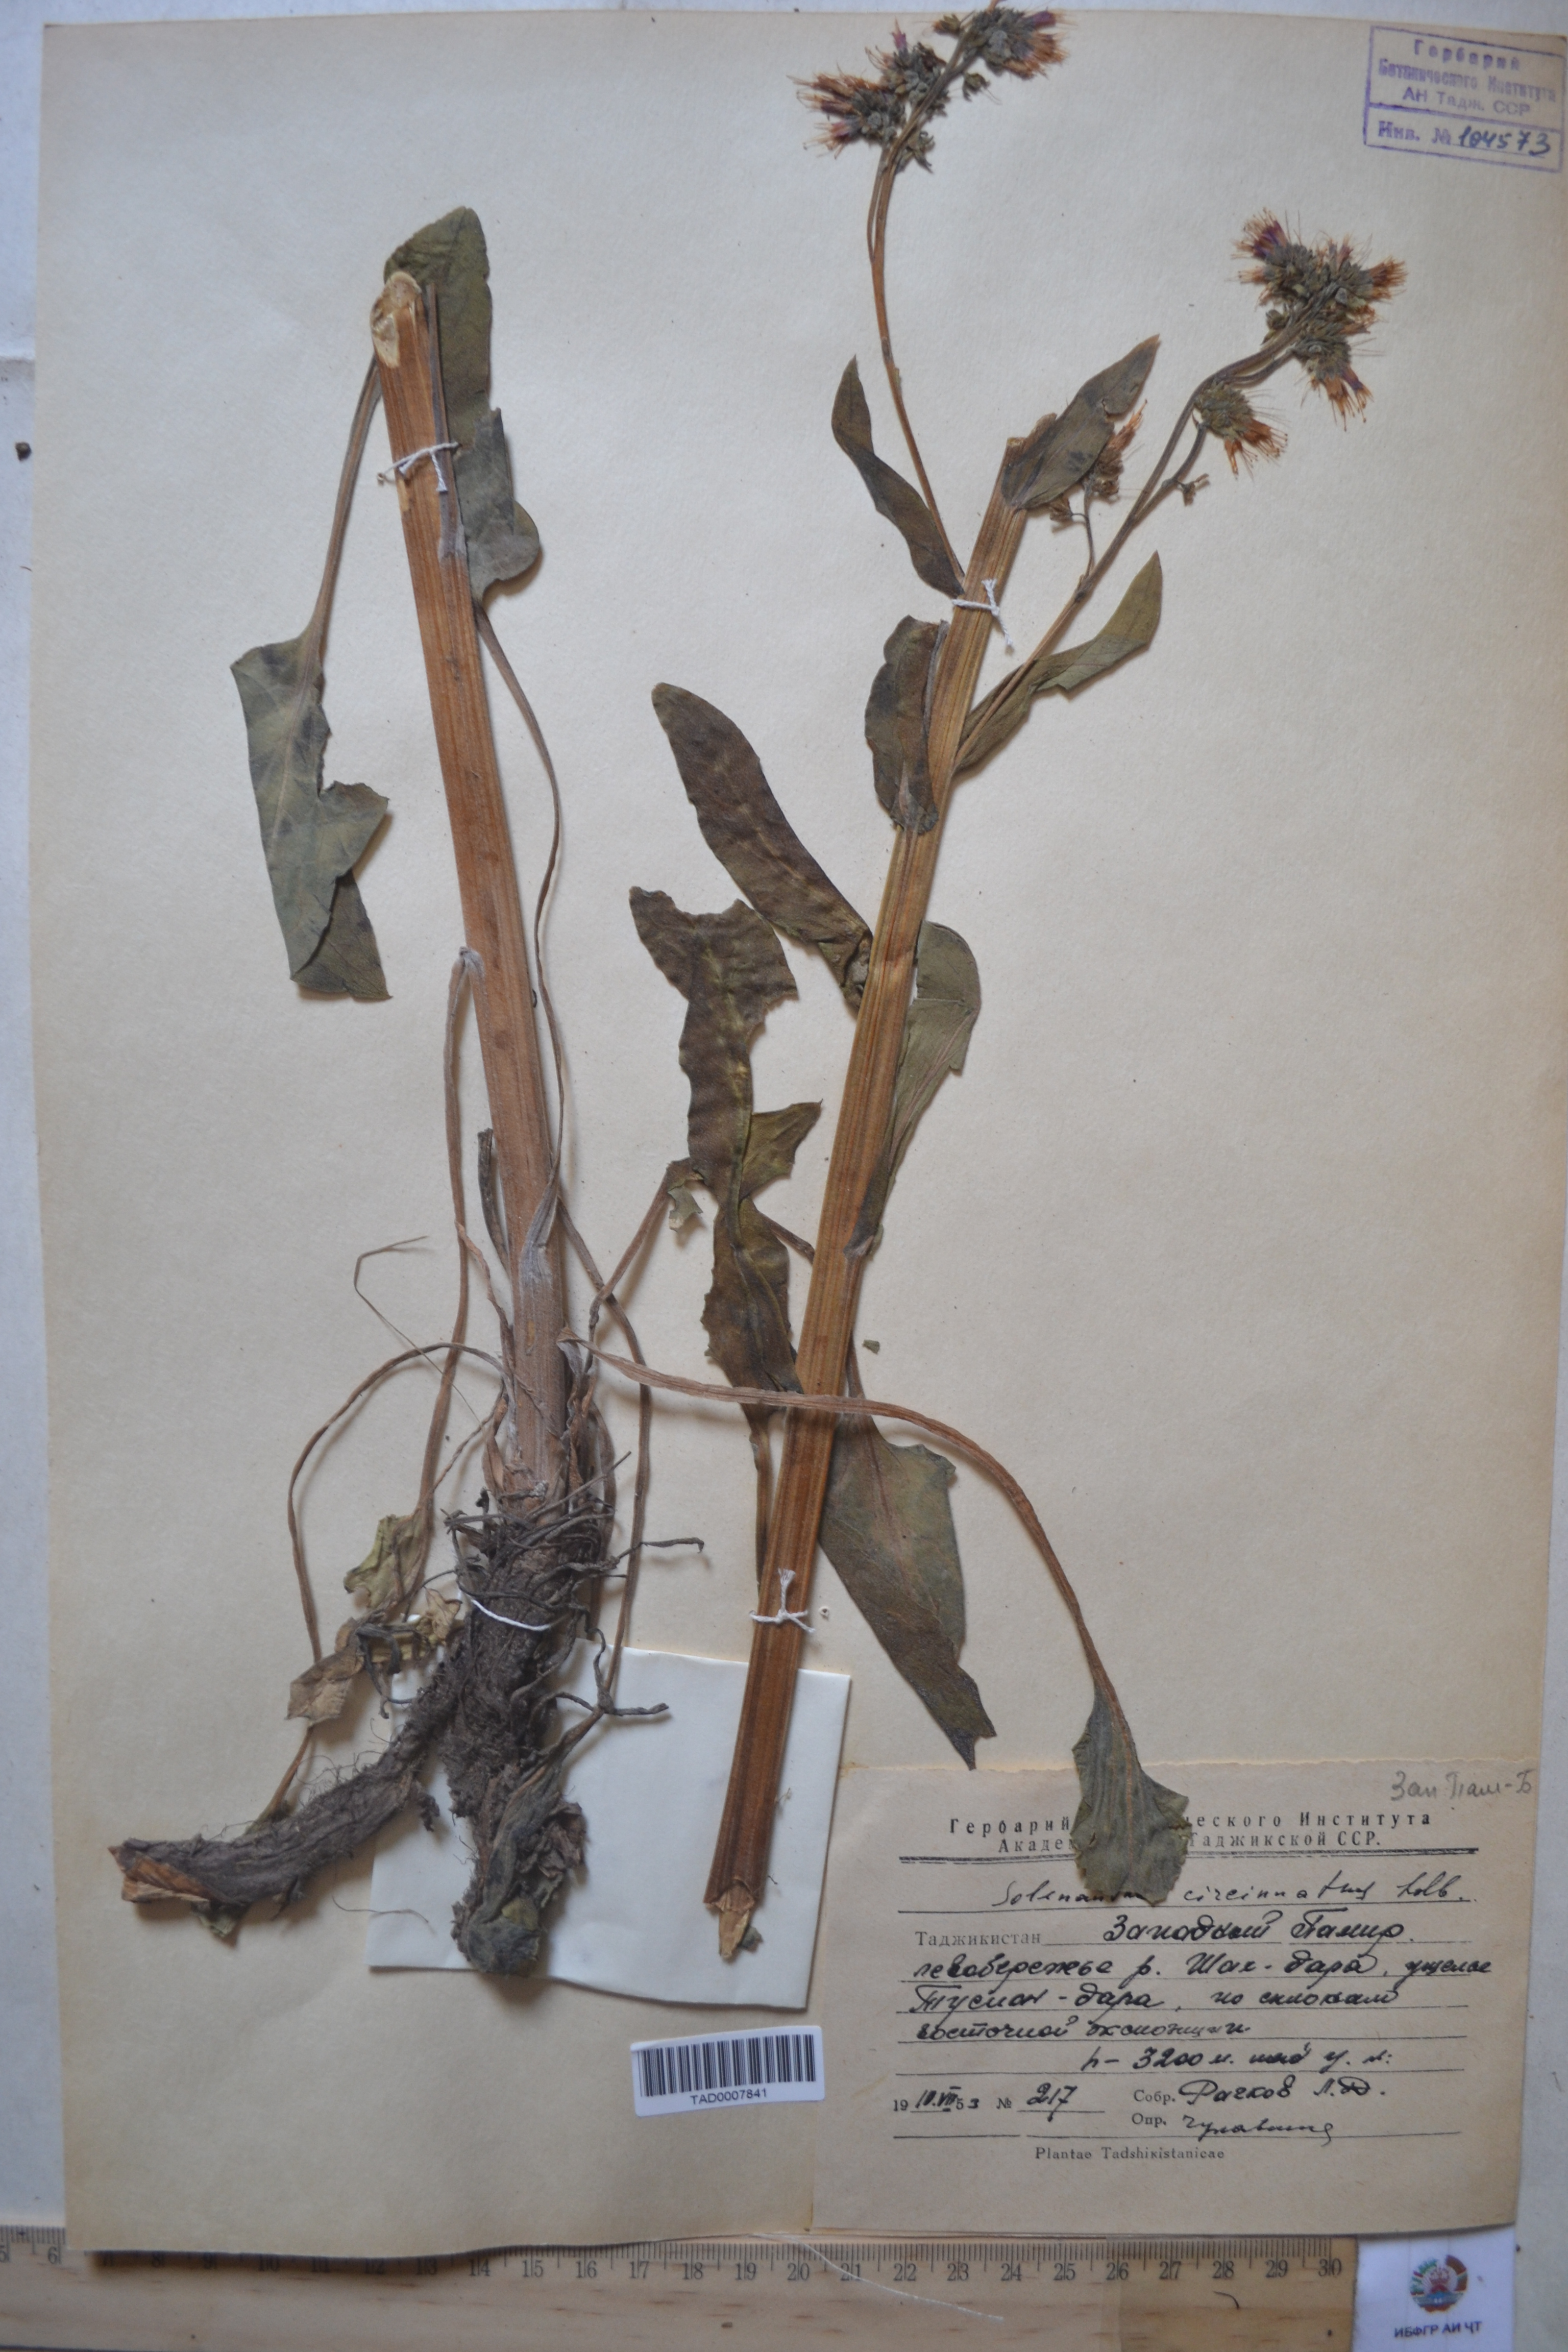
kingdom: Plantae
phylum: Tracheophyta
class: Magnoliopsida
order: Boraginales
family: Boraginaceae
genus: Solenanthus
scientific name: Solenanthus circinnatus
